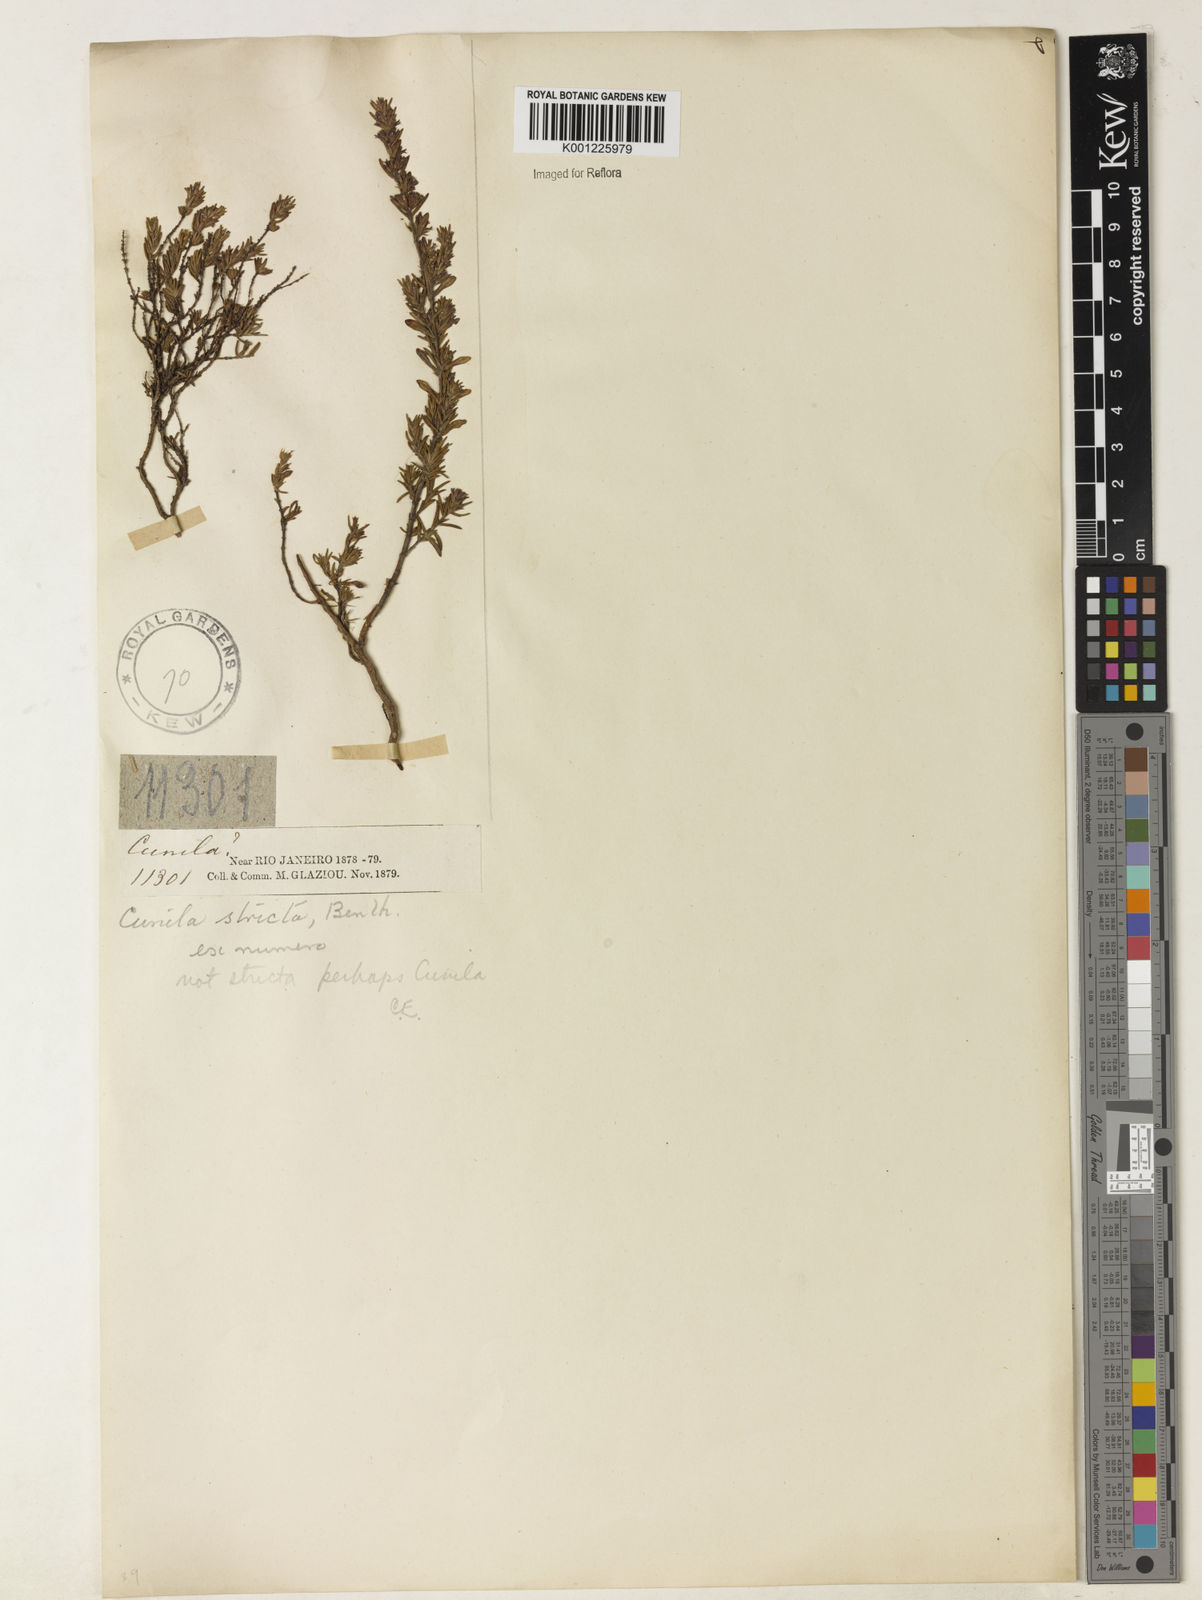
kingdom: Plantae
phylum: Tracheophyta
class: Magnoliopsida
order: Lamiales
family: Lamiaceae
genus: Cunila
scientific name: Cunila
